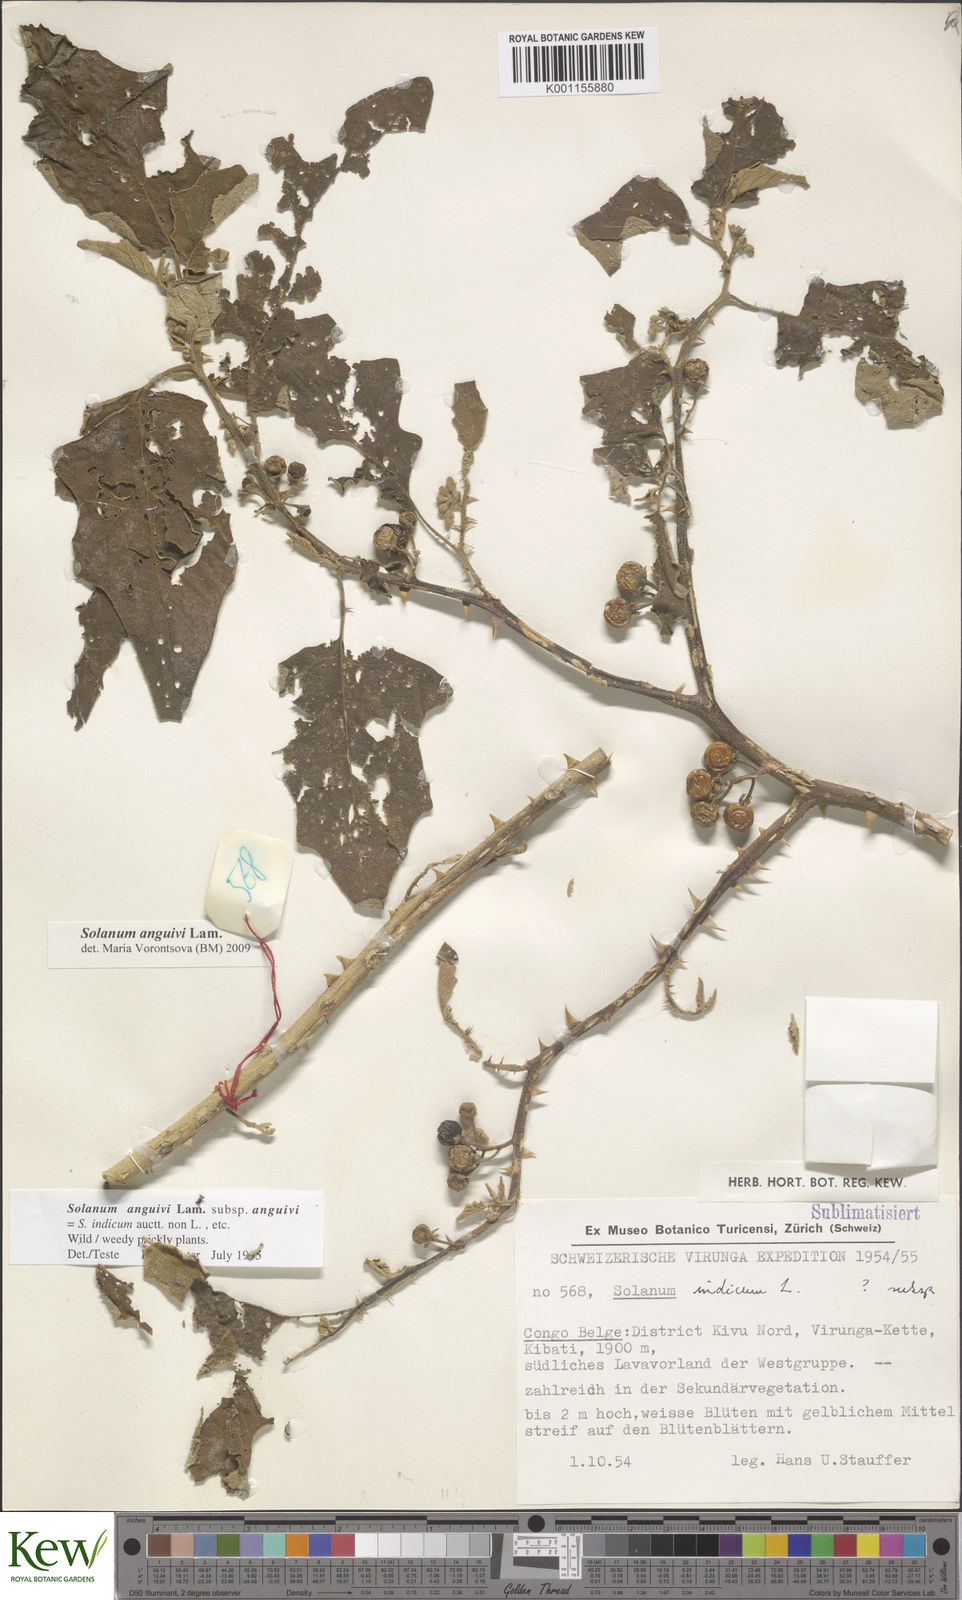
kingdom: Plantae
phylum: Tracheophyta
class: Magnoliopsida
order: Solanales
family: Solanaceae
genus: Solanum
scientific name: Solanum anguivi
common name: Forest bitterberry
